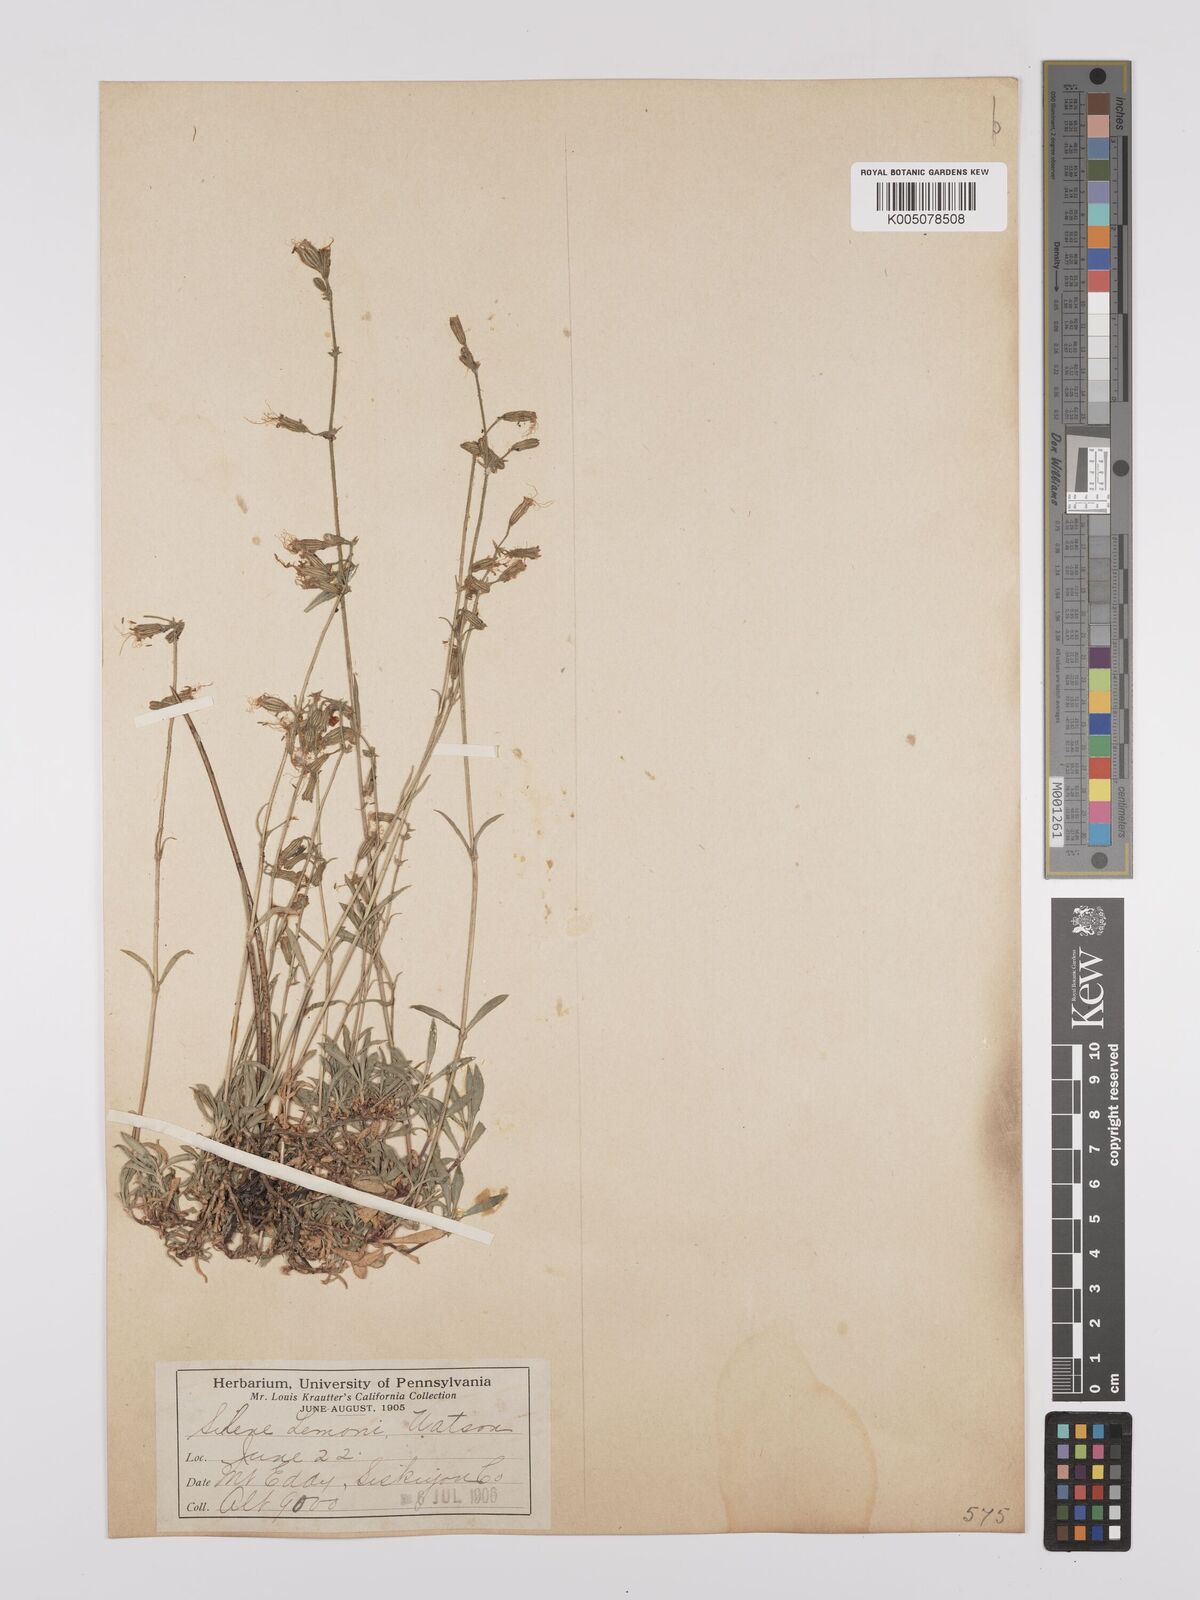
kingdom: Plantae
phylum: Tracheophyta
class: Magnoliopsida
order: Caryophyllales
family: Caryophyllaceae
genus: Silene
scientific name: Silene lemmonii
